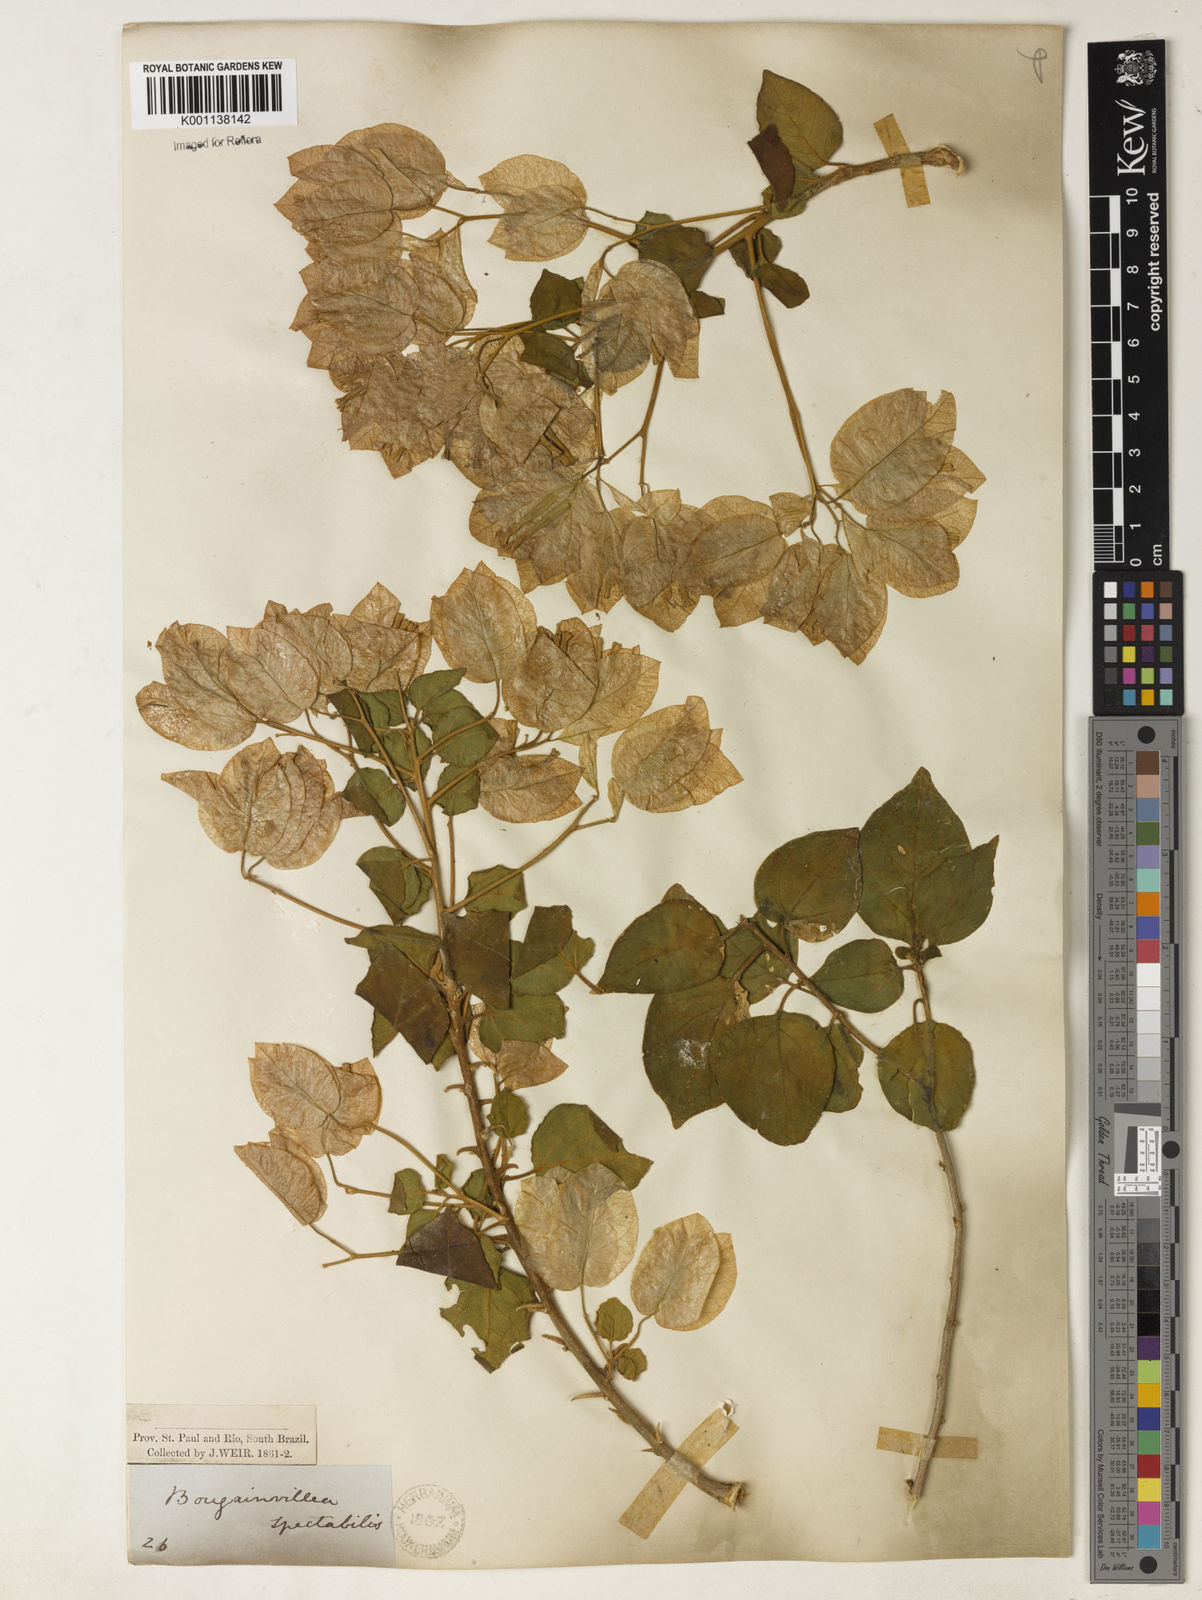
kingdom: Plantae
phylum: Tracheophyta
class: Magnoliopsida
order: Caryophyllales
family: Nyctaginaceae
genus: Bougainvillea
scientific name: Bougainvillea spectabilis
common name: Great bougainvillea
